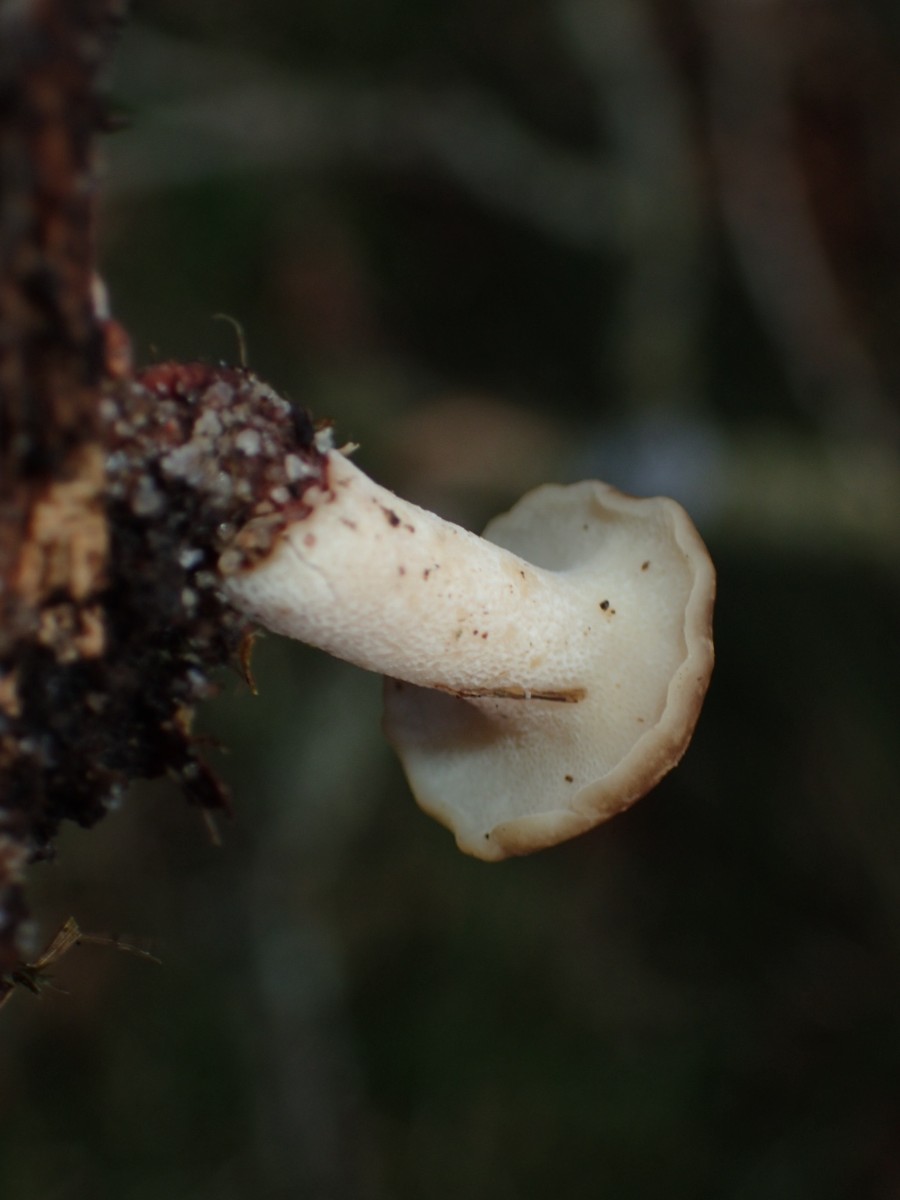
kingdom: Fungi
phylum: Basidiomycota
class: Agaricomycetes
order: Polyporales
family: Polyporaceae
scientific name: Polyporaceae
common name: poresvampfamilien
